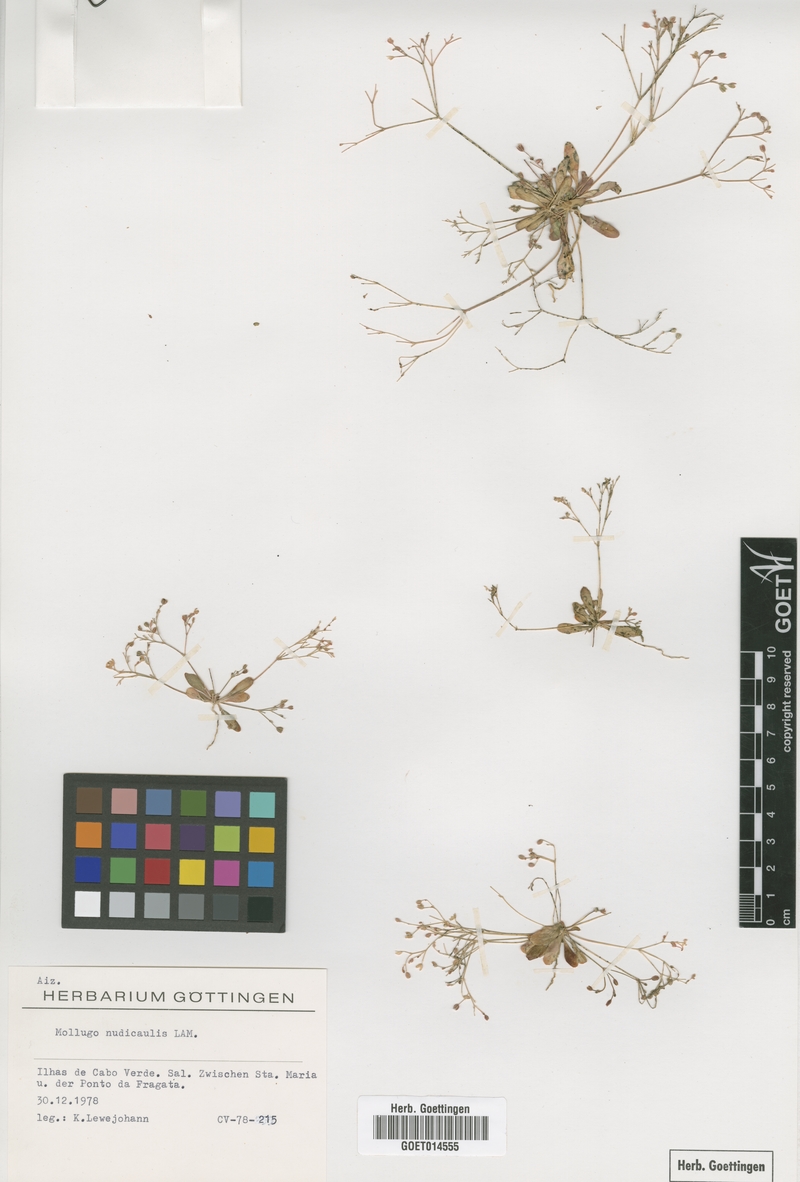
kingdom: Plantae
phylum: Tracheophyta
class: Magnoliopsida
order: Caryophyllales
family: Molluginaceae
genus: Paramollugo
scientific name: Paramollugo nudicaulis
